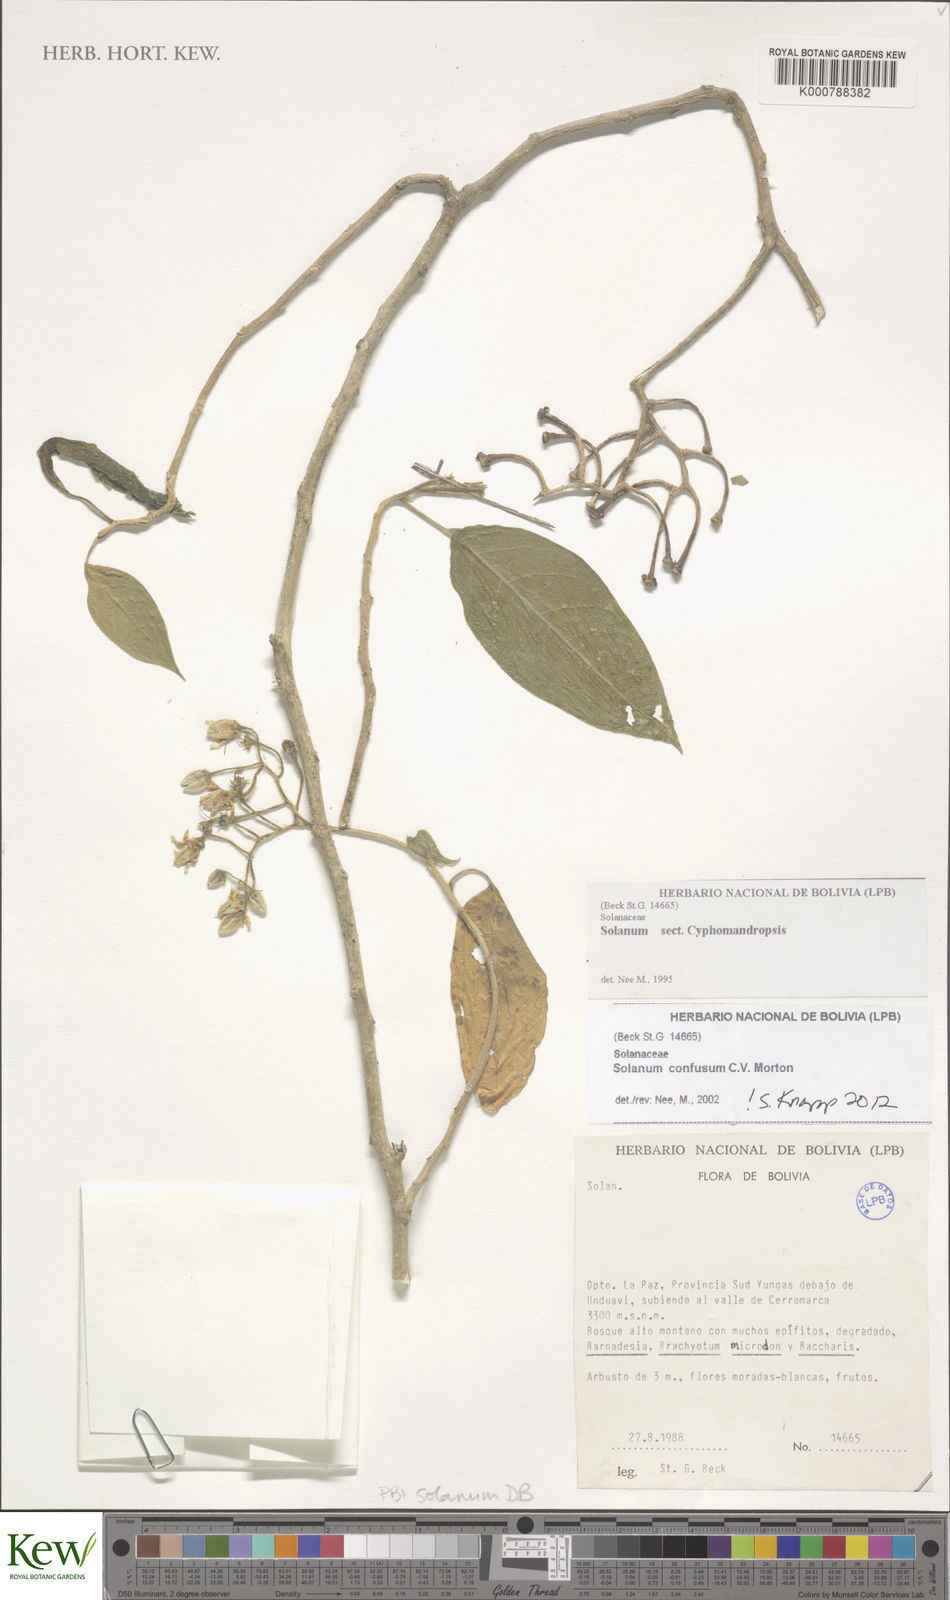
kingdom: Plantae
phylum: Tracheophyta
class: Magnoliopsida
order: Solanales
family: Solanaceae
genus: Solanum
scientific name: Solanum confusum
